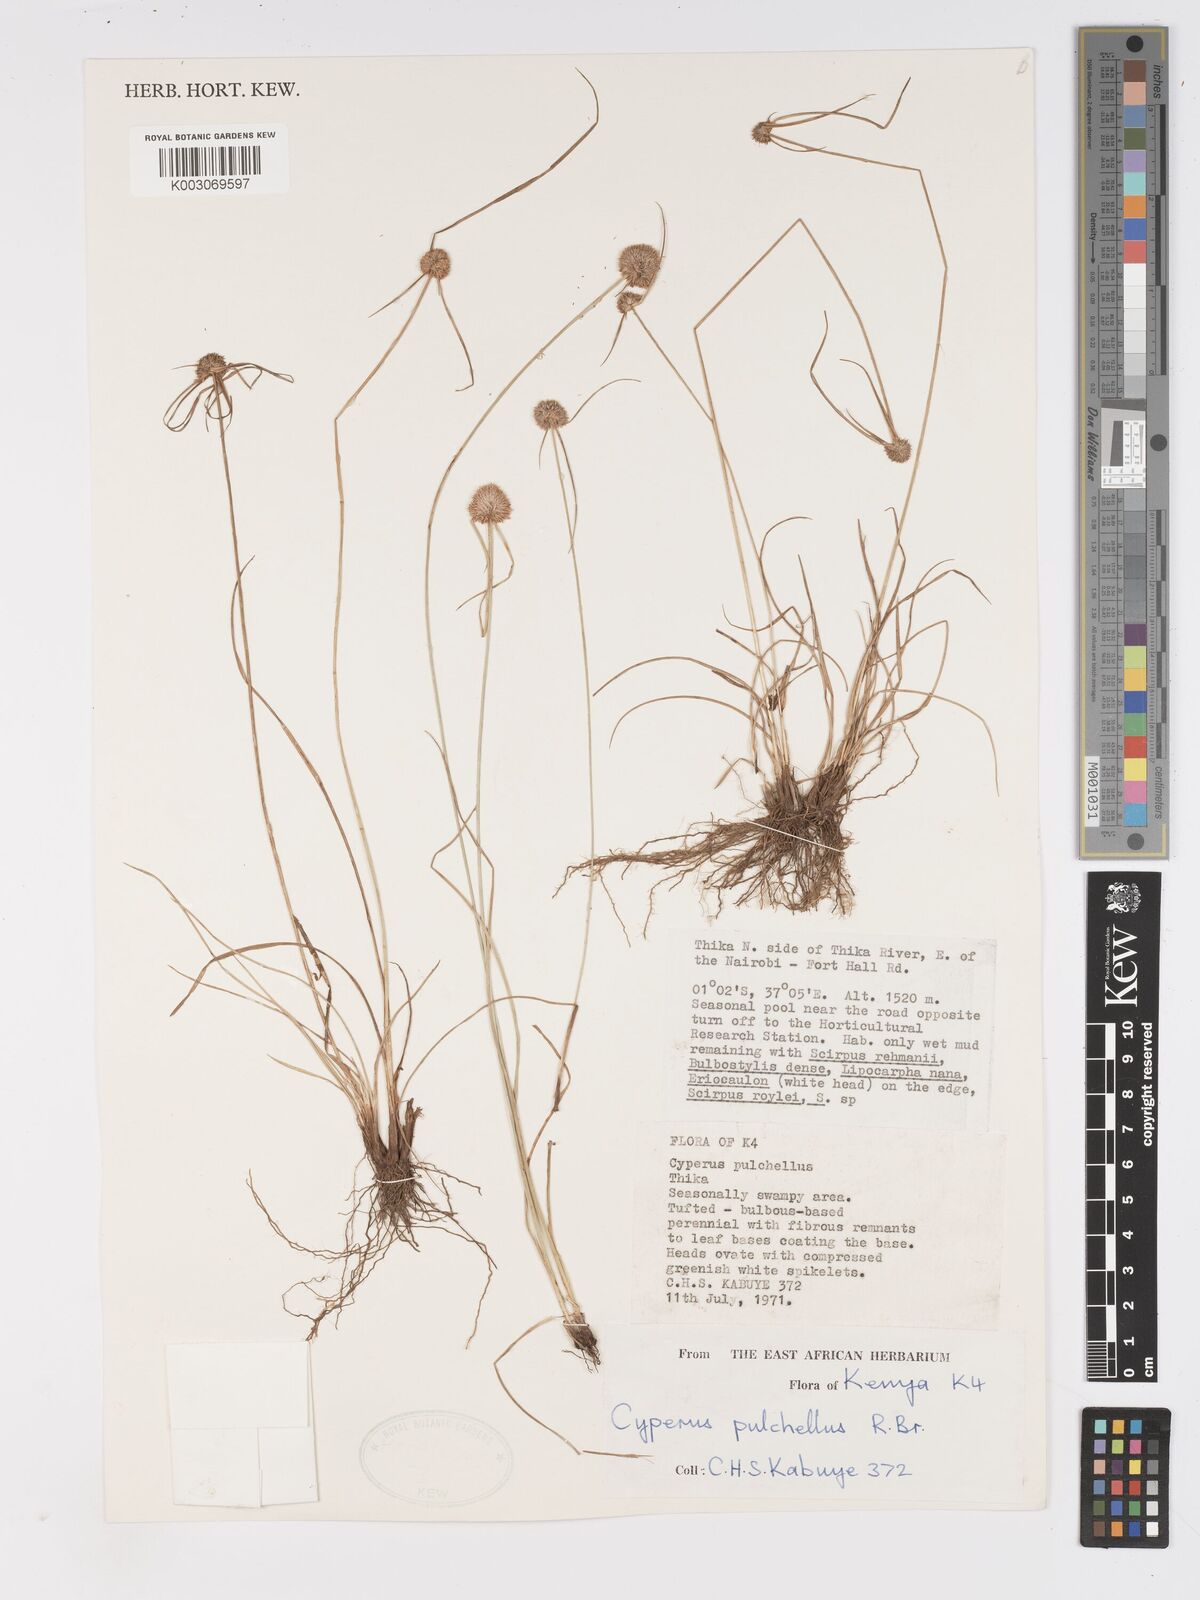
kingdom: Plantae
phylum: Tracheophyta
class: Liliopsida
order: Poales
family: Cyperaceae
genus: Cyperus
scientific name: Cyperus pulchellus
